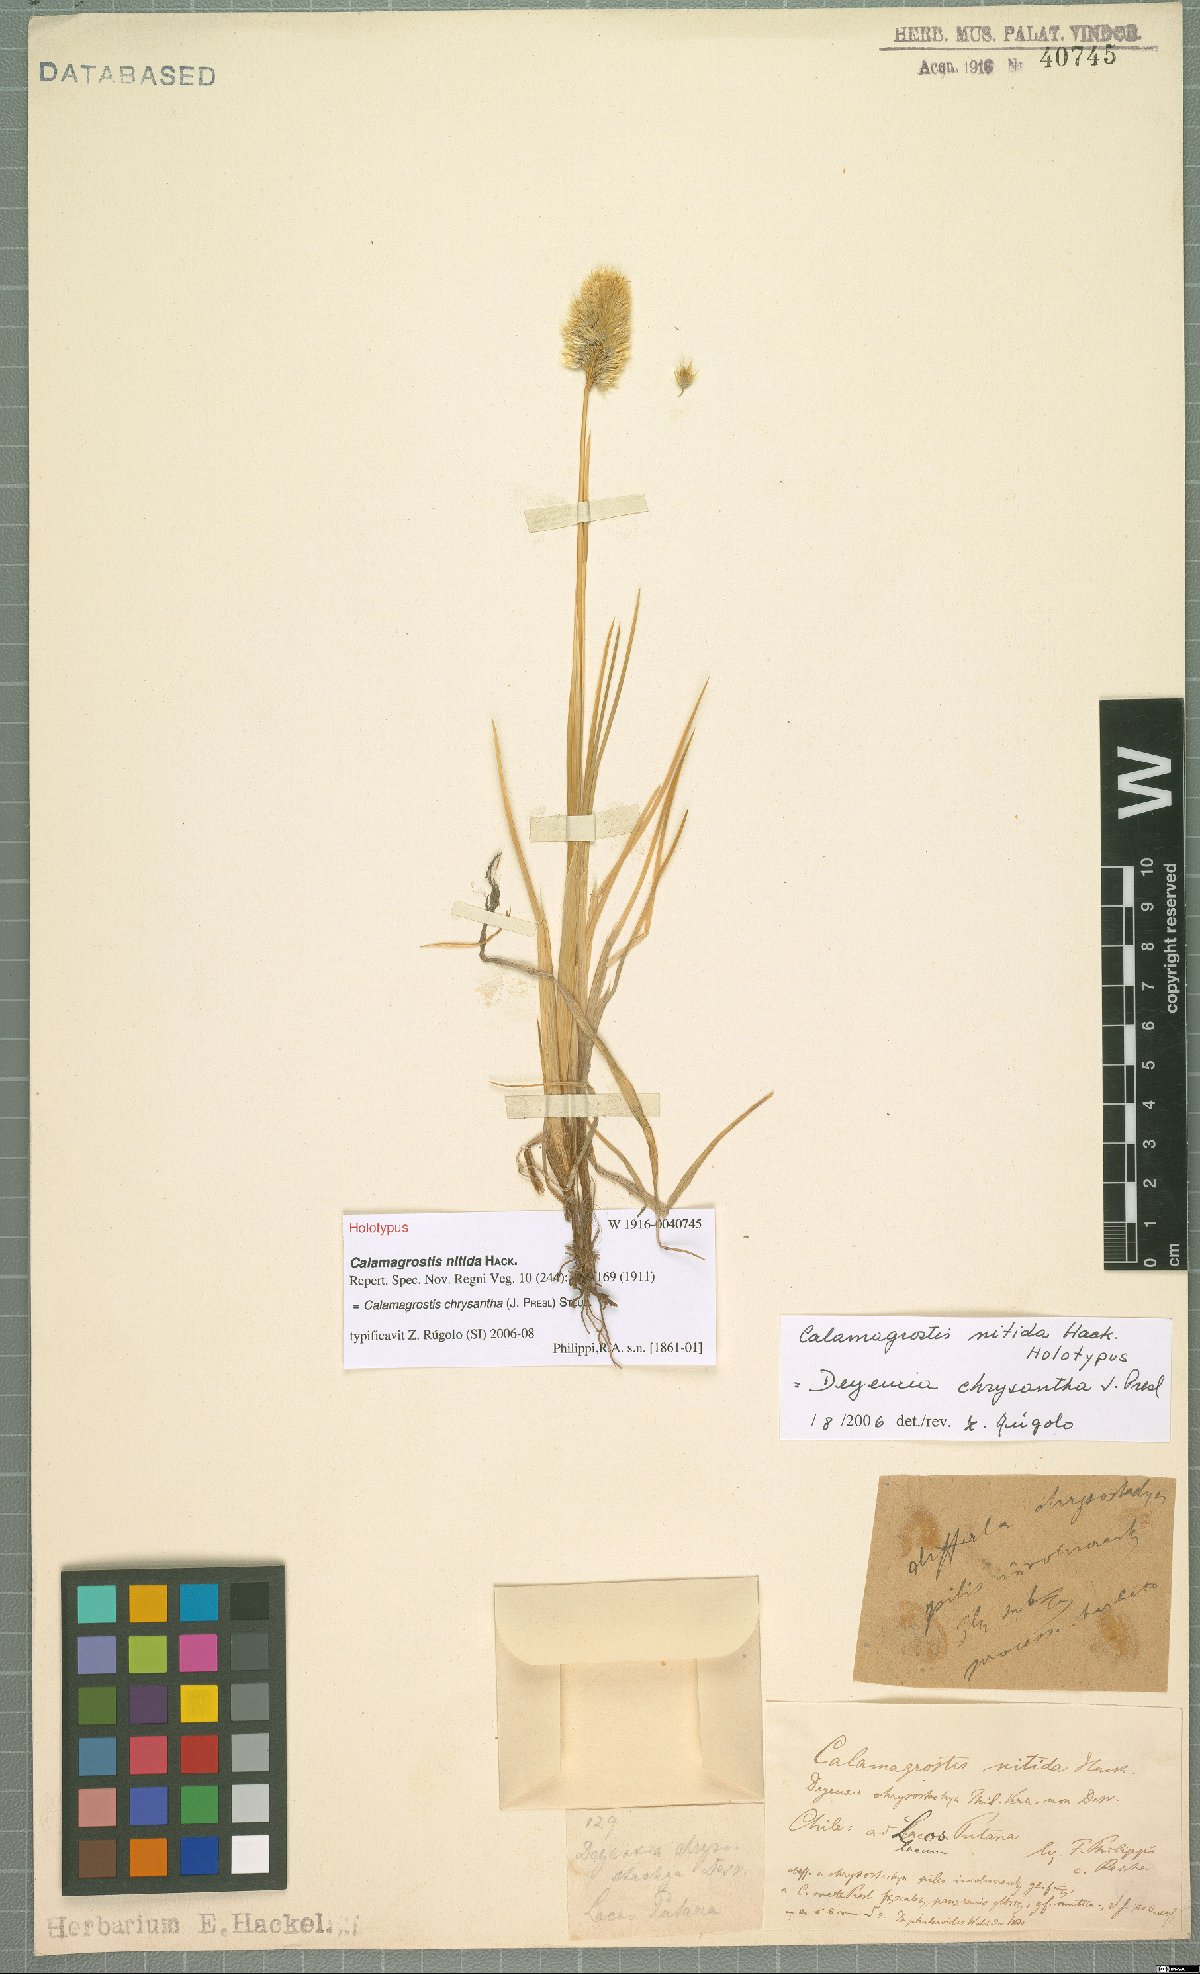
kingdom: Plantae
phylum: Tracheophyta
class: Liliopsida
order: Poales
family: Poaceae
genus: Deschampsia
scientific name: Deschampsia chrysantha
